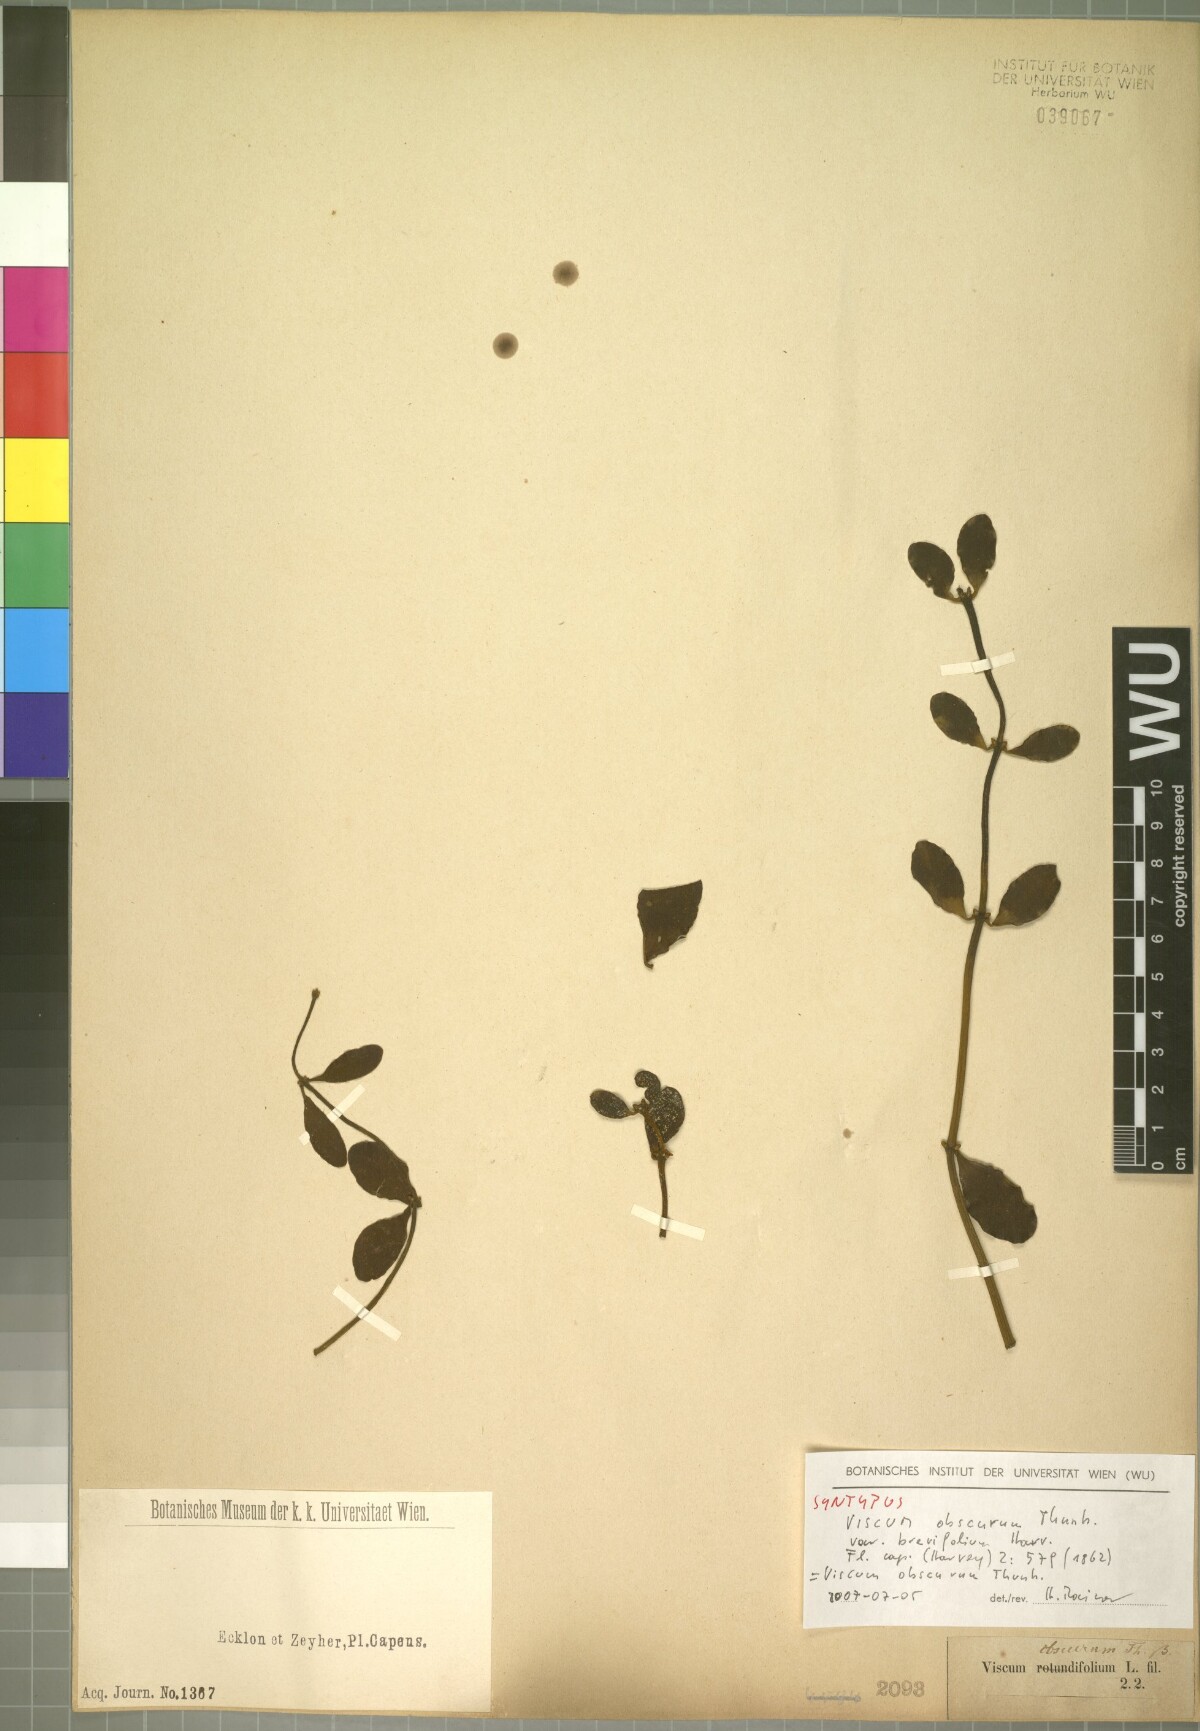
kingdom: Plantae
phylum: Tracheophyta
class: Magnoliopsida
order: Santalales
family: Viscaceae
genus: Viscum
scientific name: Viscum obscurum
